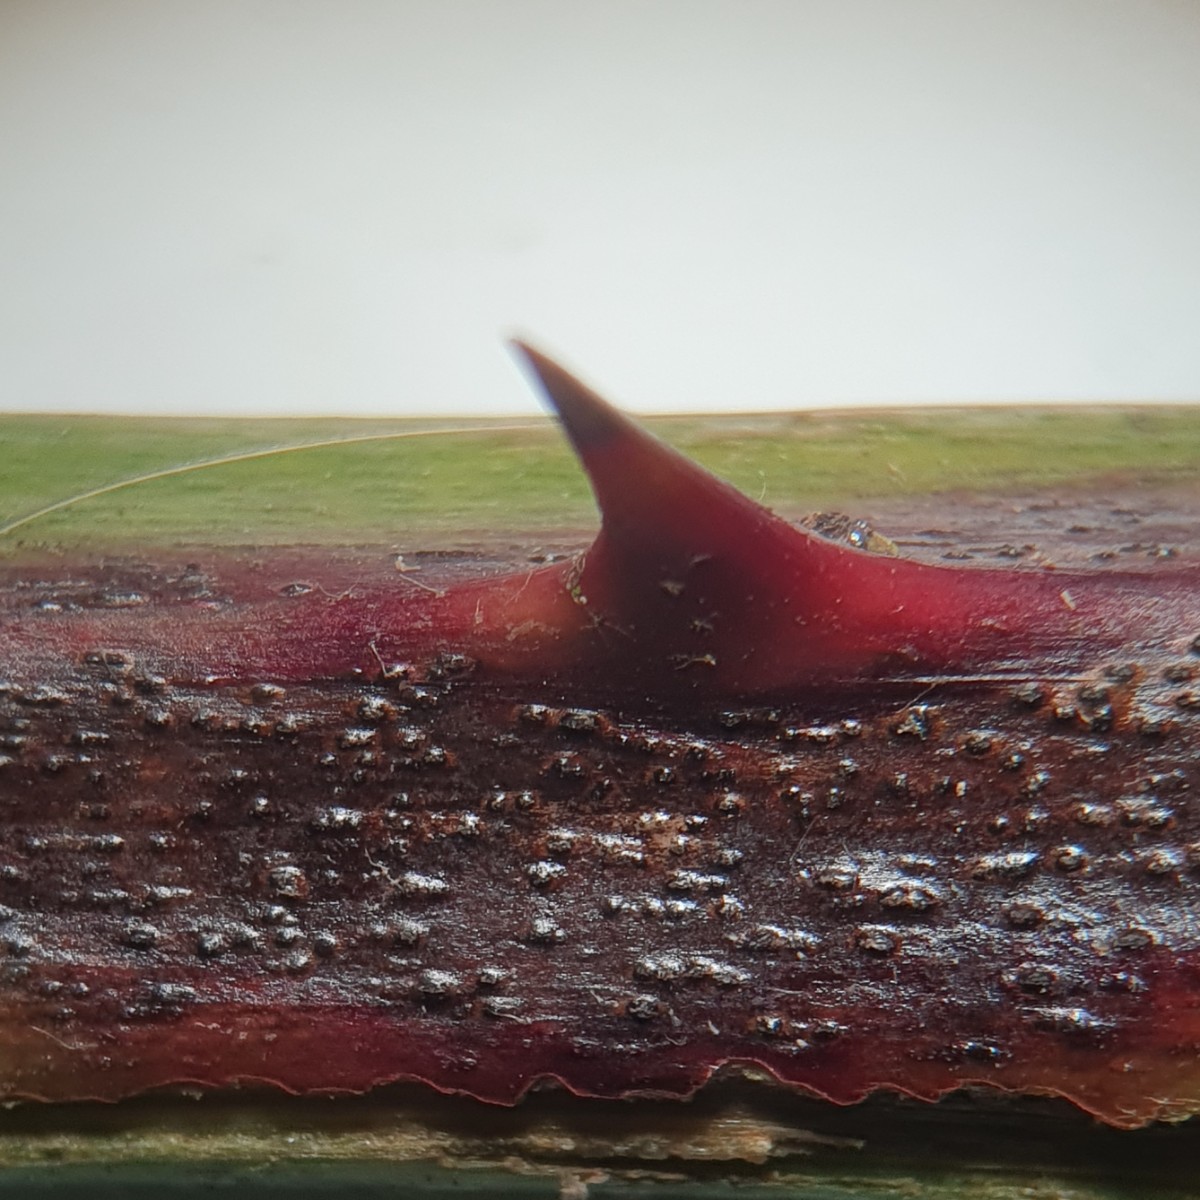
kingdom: Fungi
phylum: Ascomycota
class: Dothideomycetes
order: Capnodiales
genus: Septocyta
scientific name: Septocyta ruborum
